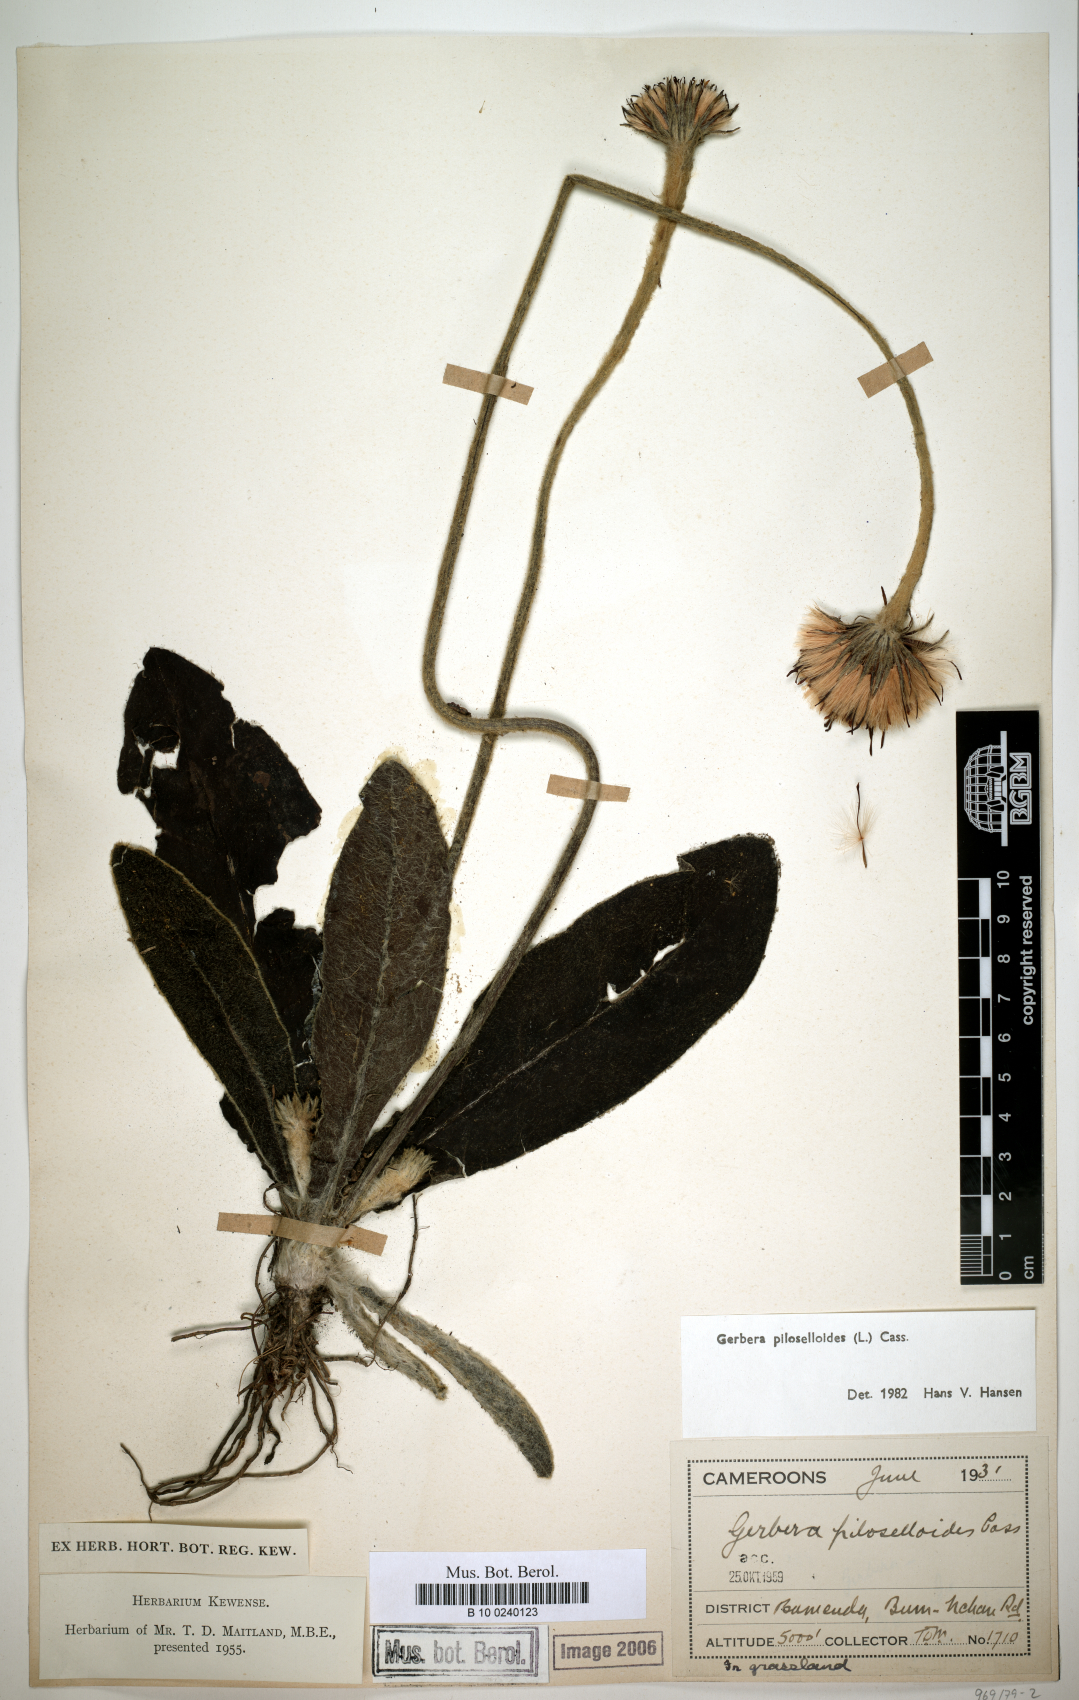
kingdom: Plantae
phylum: Tracheophyta
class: Magnoliopsida
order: Asterales
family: Asteraceae
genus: Piloselloides
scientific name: Piloselloides hirsuta
